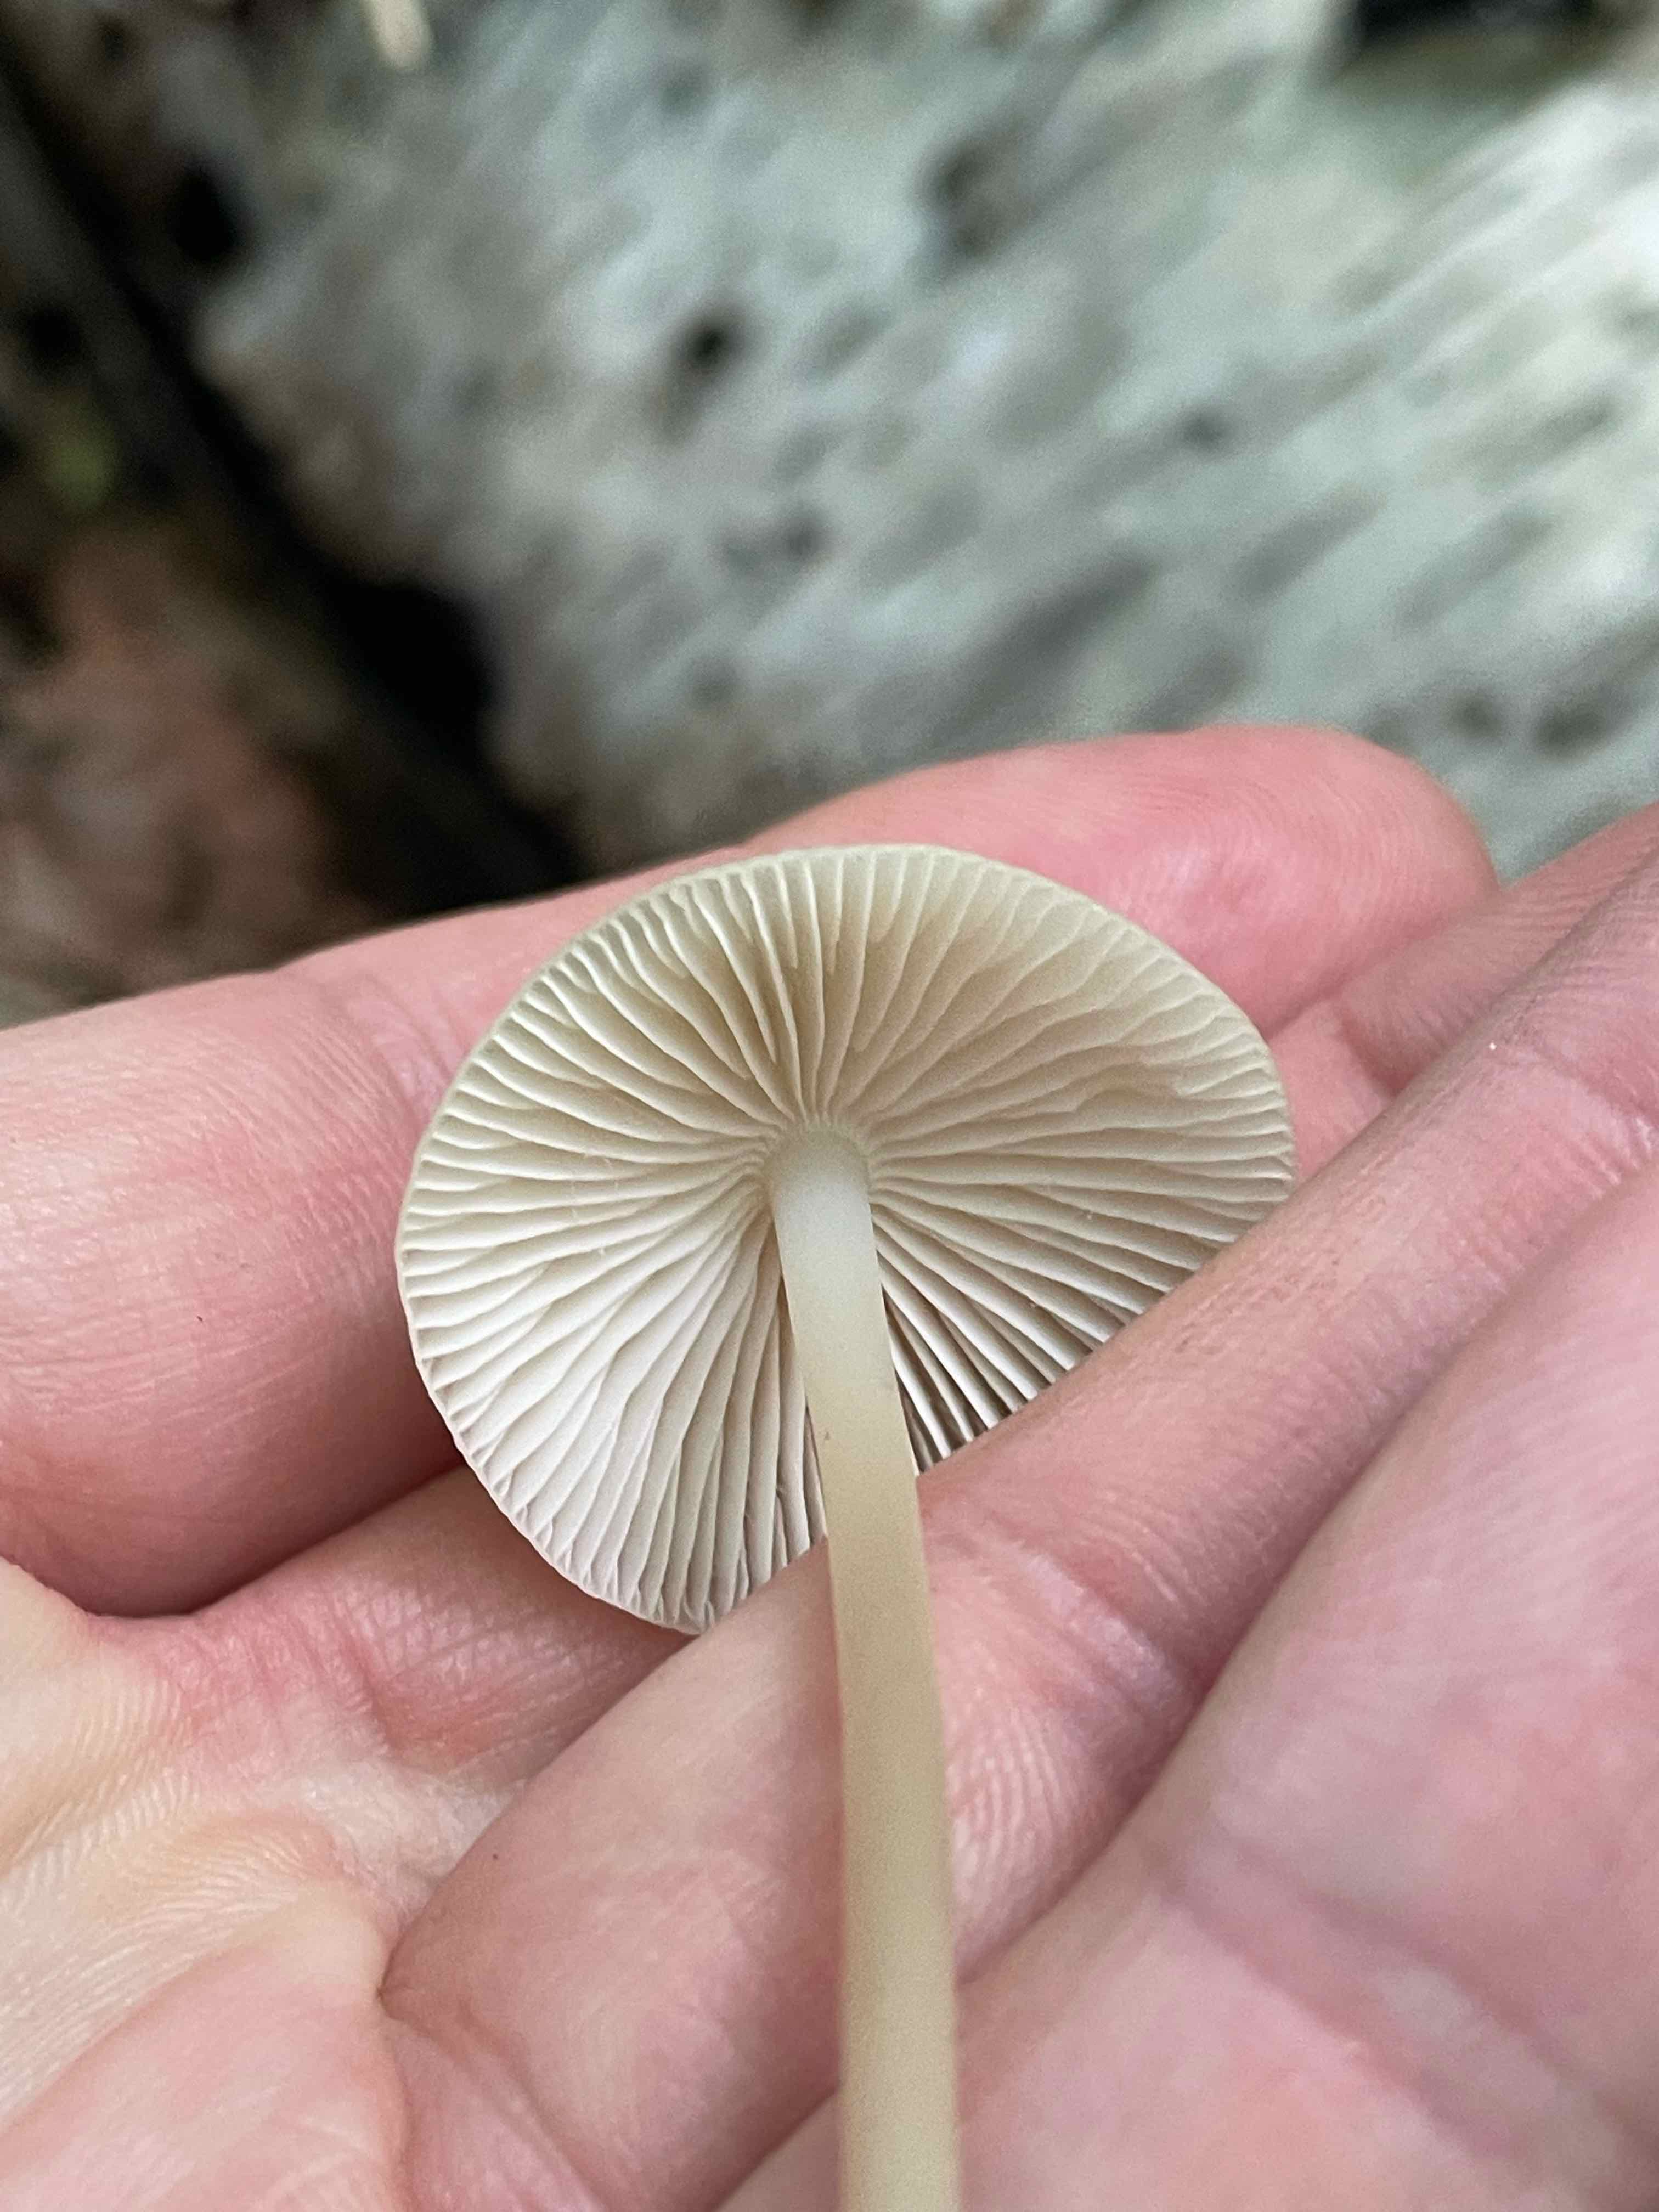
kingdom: Fungi
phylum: Basidiomycota
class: Agaricomycetes
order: Agaricales
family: Mycenaceae
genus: Mycena
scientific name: Mycena galericulata
